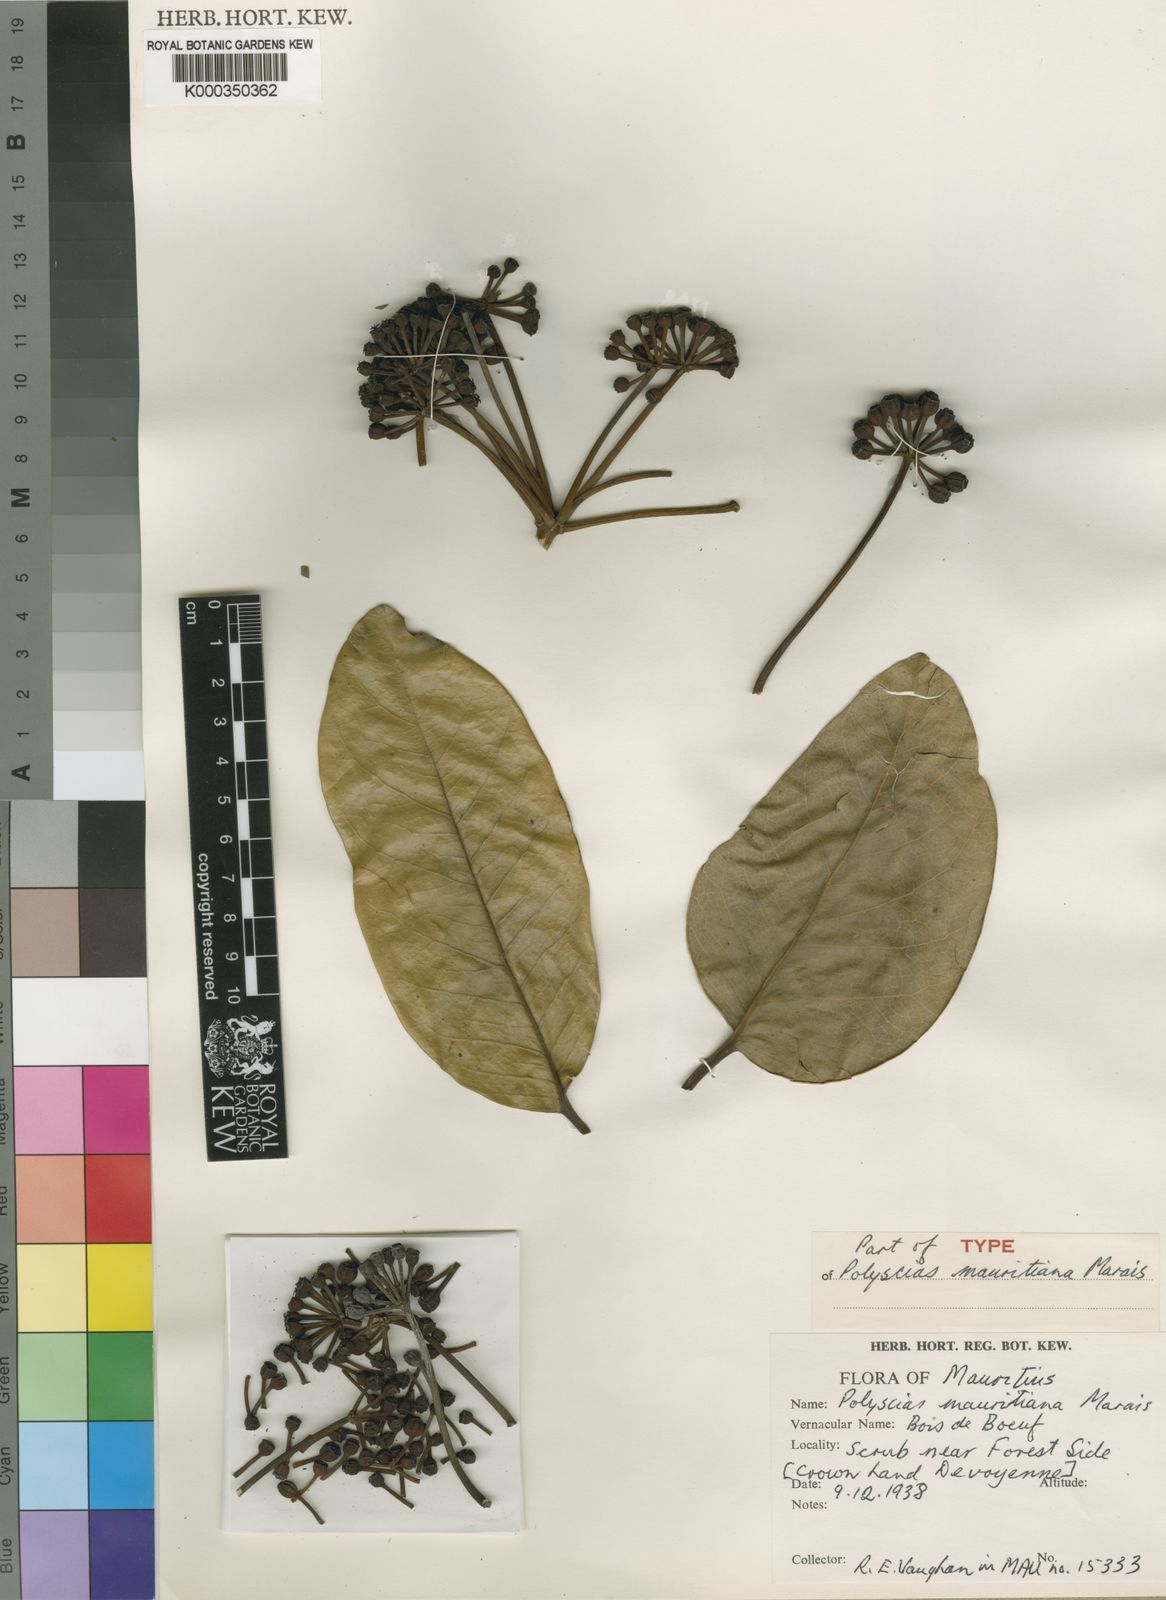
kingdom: Plantae
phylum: Tracheophyta
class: Magnoliopsida
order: Apiales
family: Araliaceae
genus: Polyscias
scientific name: Polyscias mauritiana
